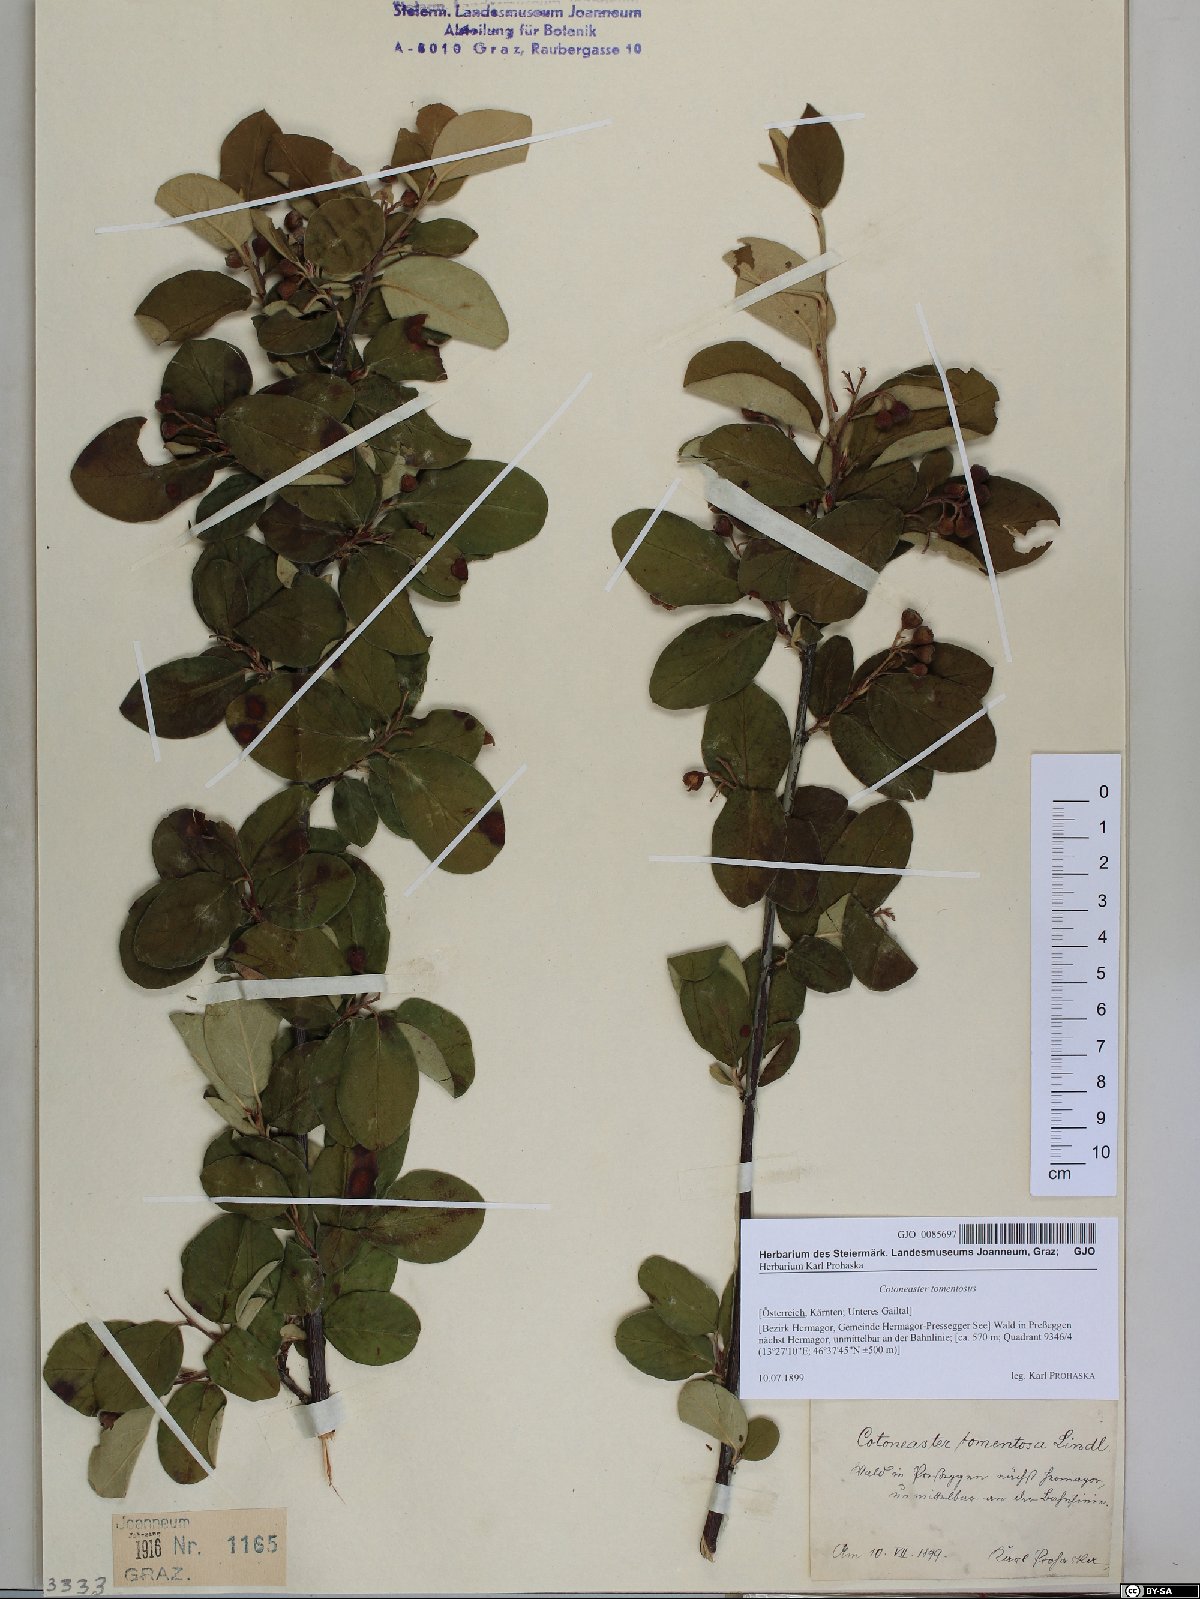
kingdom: Plantae
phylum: Tracheophyta
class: Magnoliopsida
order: Rosales
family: Rosaceae
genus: Cotoneaster
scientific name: Cotoneaster tomentosus
